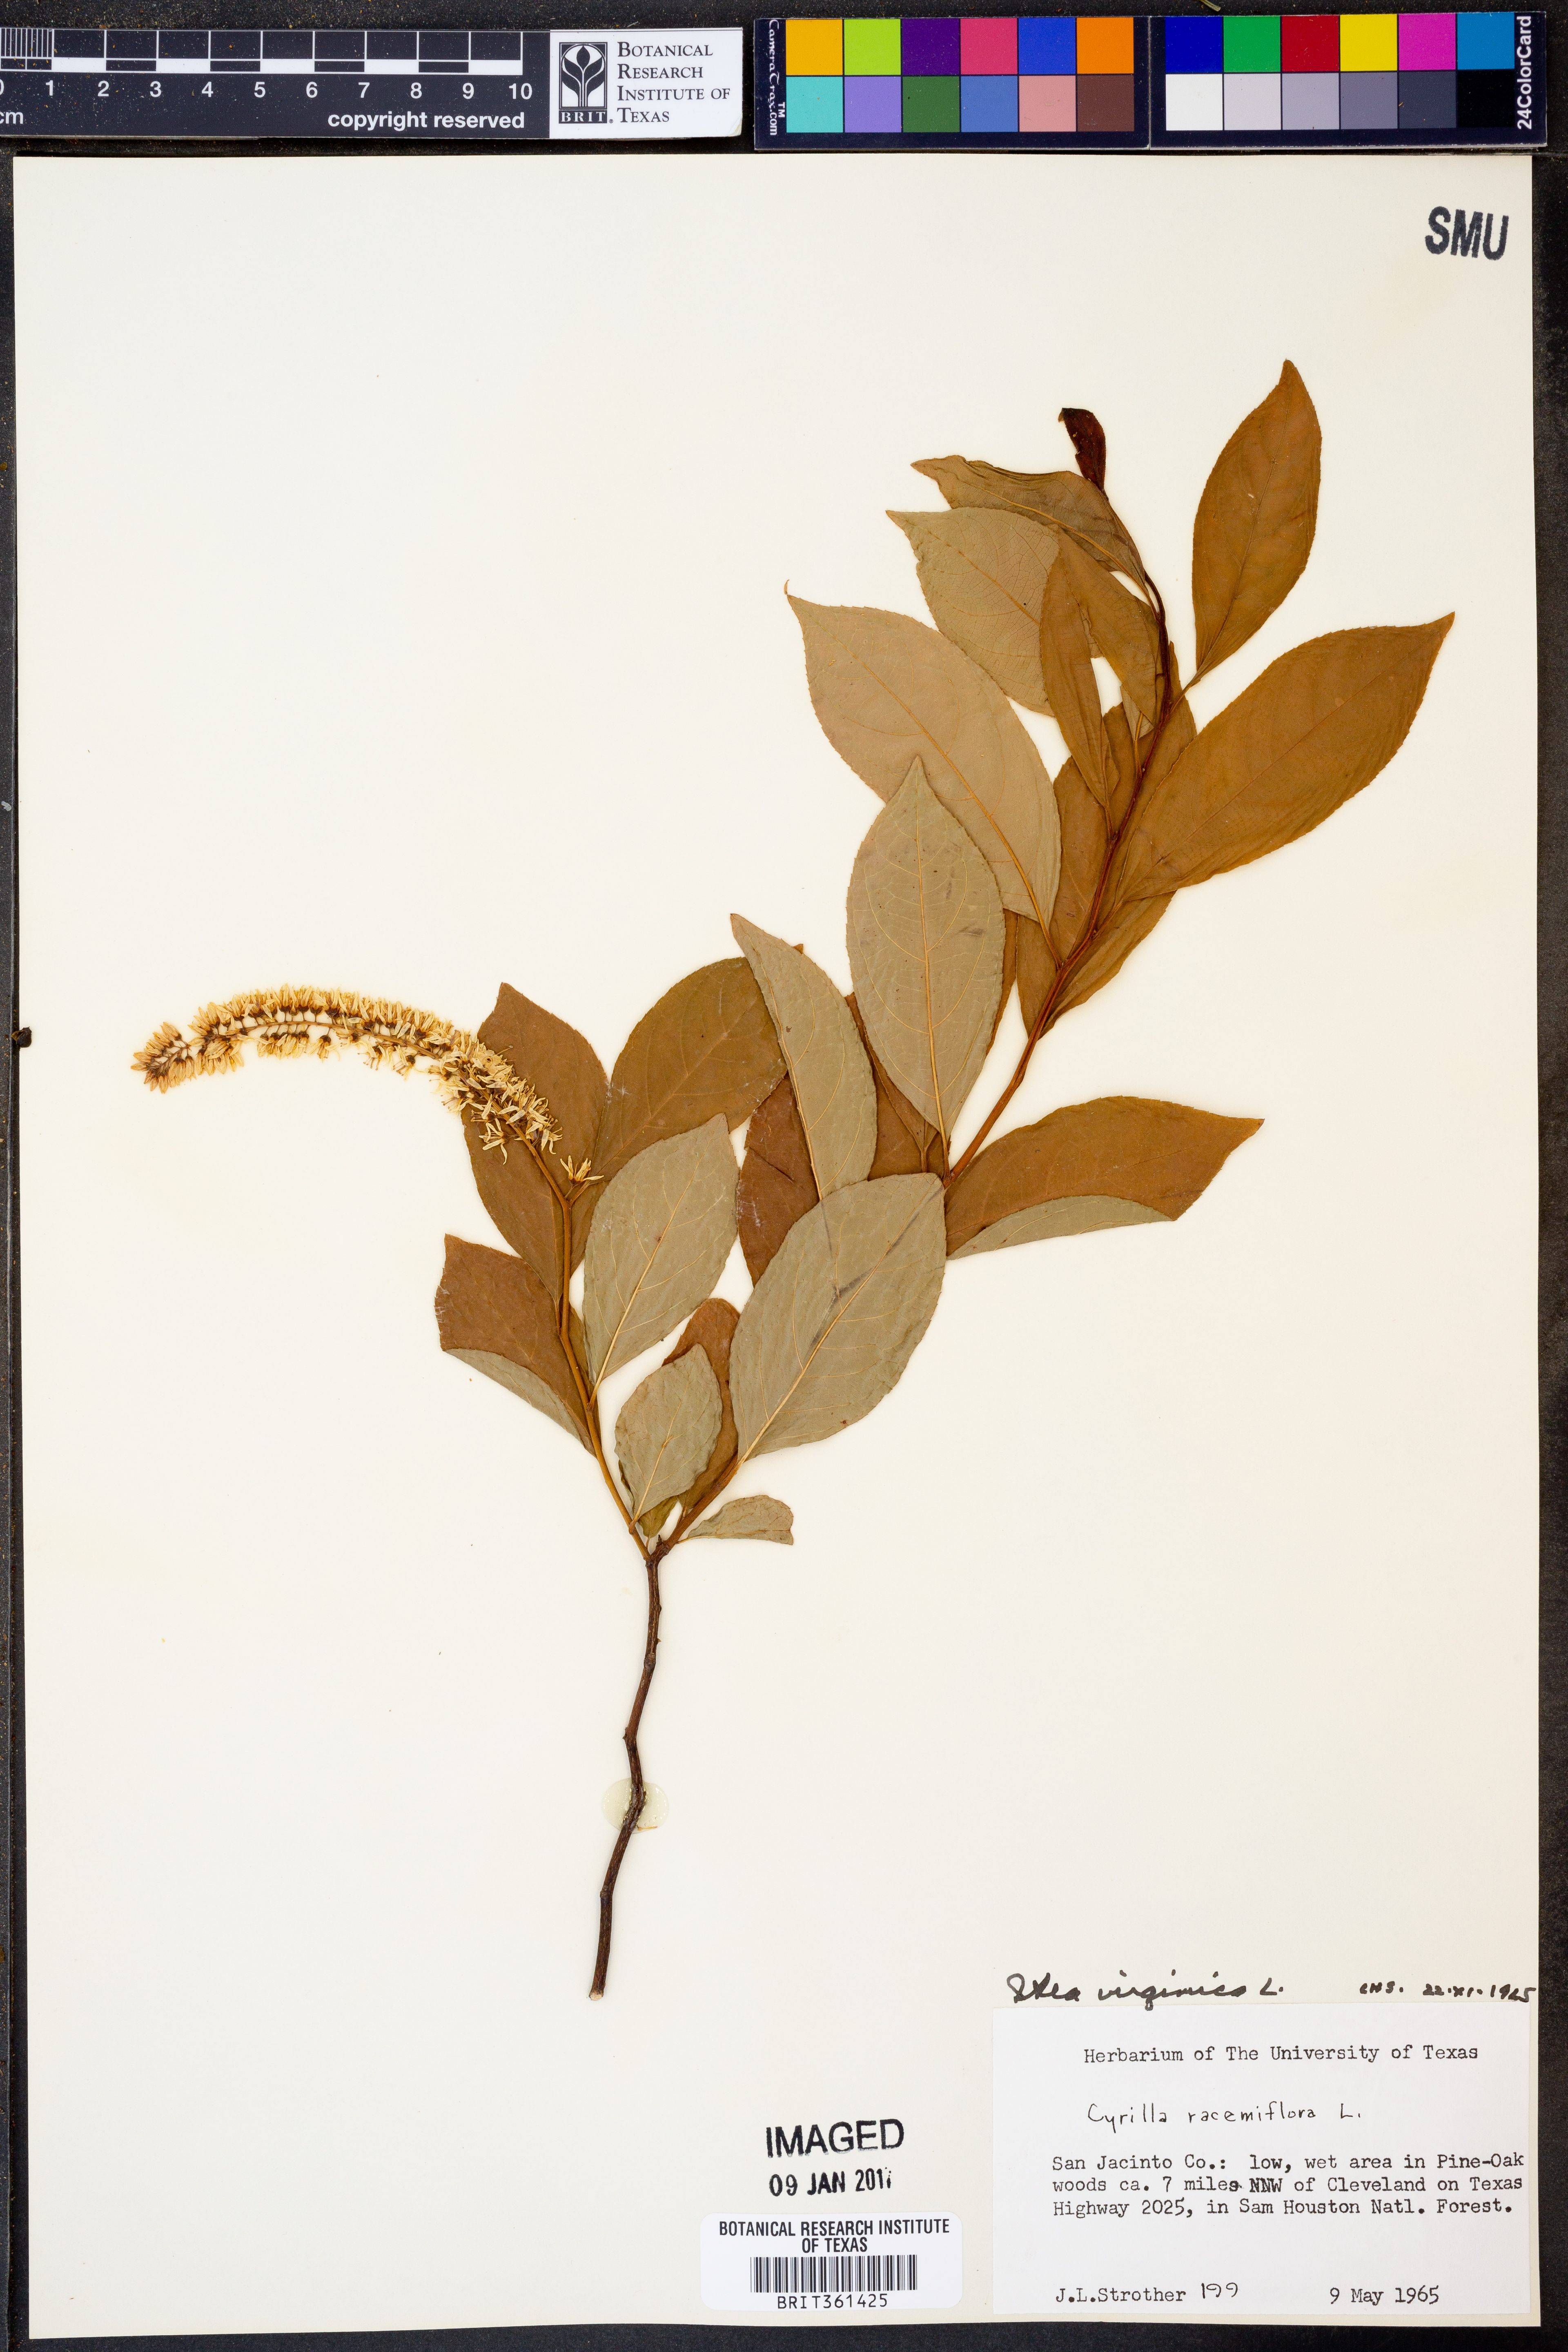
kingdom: Plantae
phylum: Tracheophyta
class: Magnoliopsida
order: Saxifragales
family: Iteaceae
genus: Itea
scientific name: Itea virginica
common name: Sweetspire
